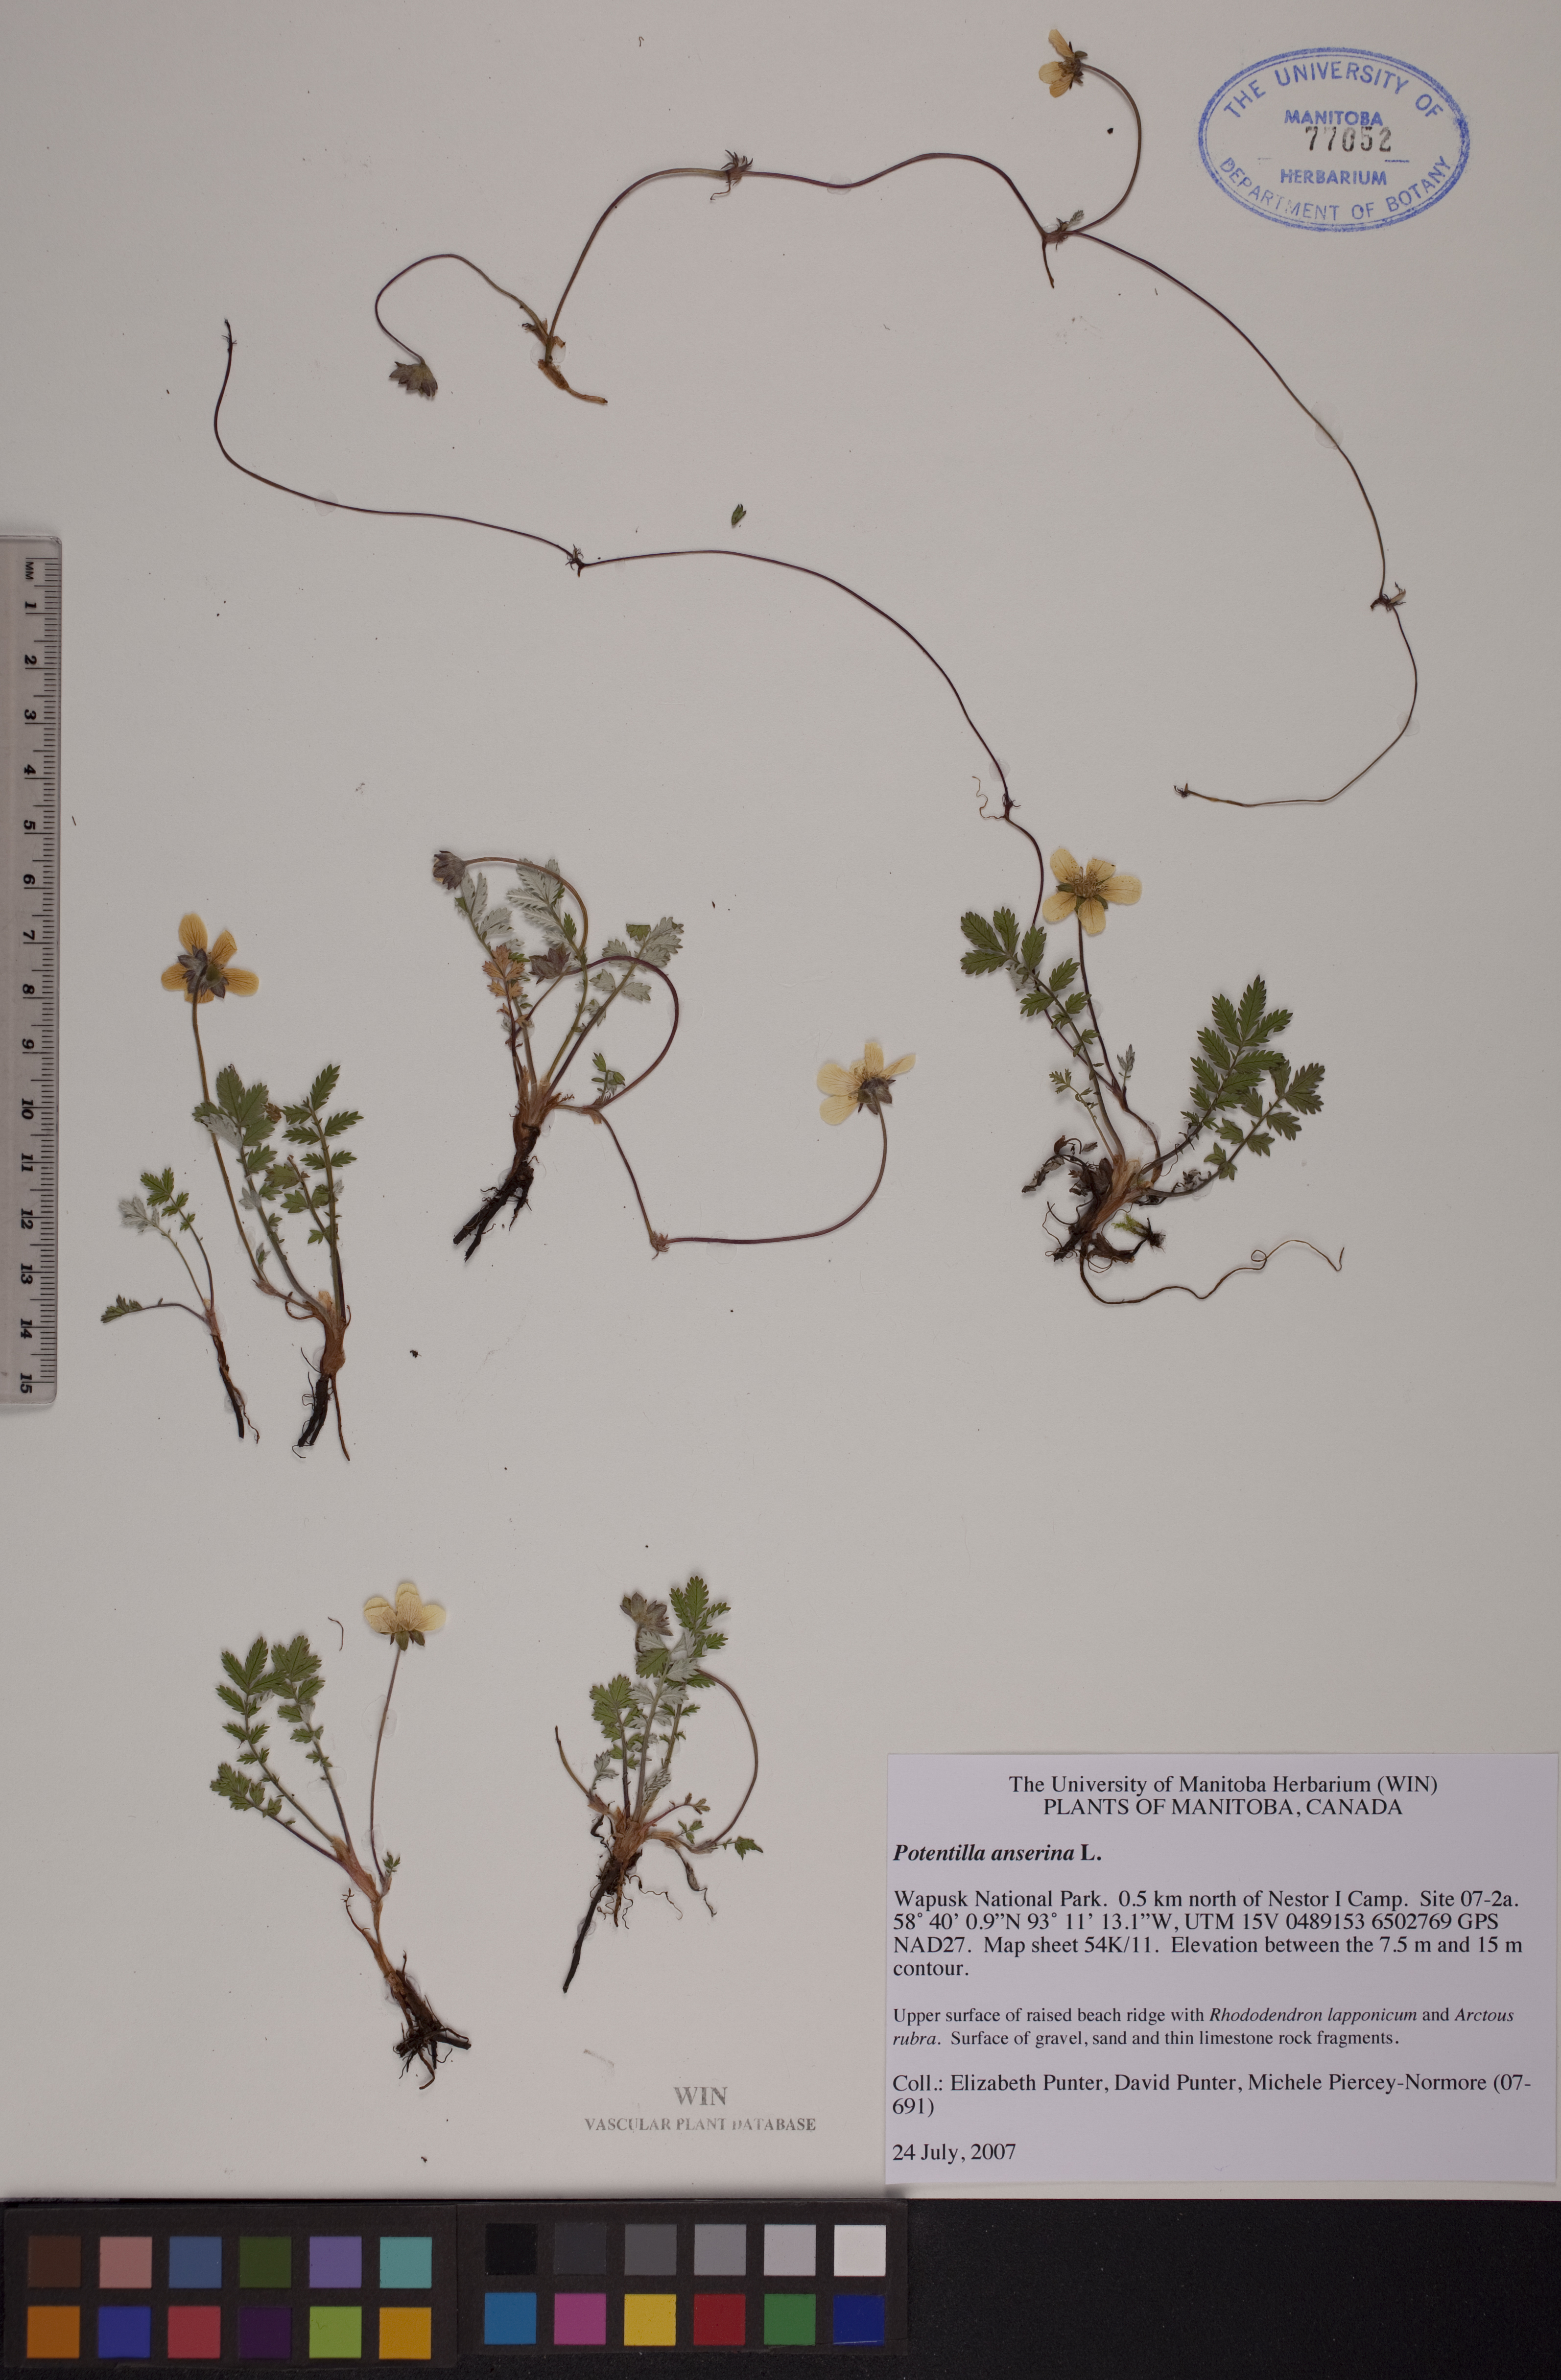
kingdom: Plantae
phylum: Tracheophyta
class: Magnoliopsida
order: Rosales
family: Rosaceae
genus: Argentina
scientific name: Argentina anserina
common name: Common silverweed
